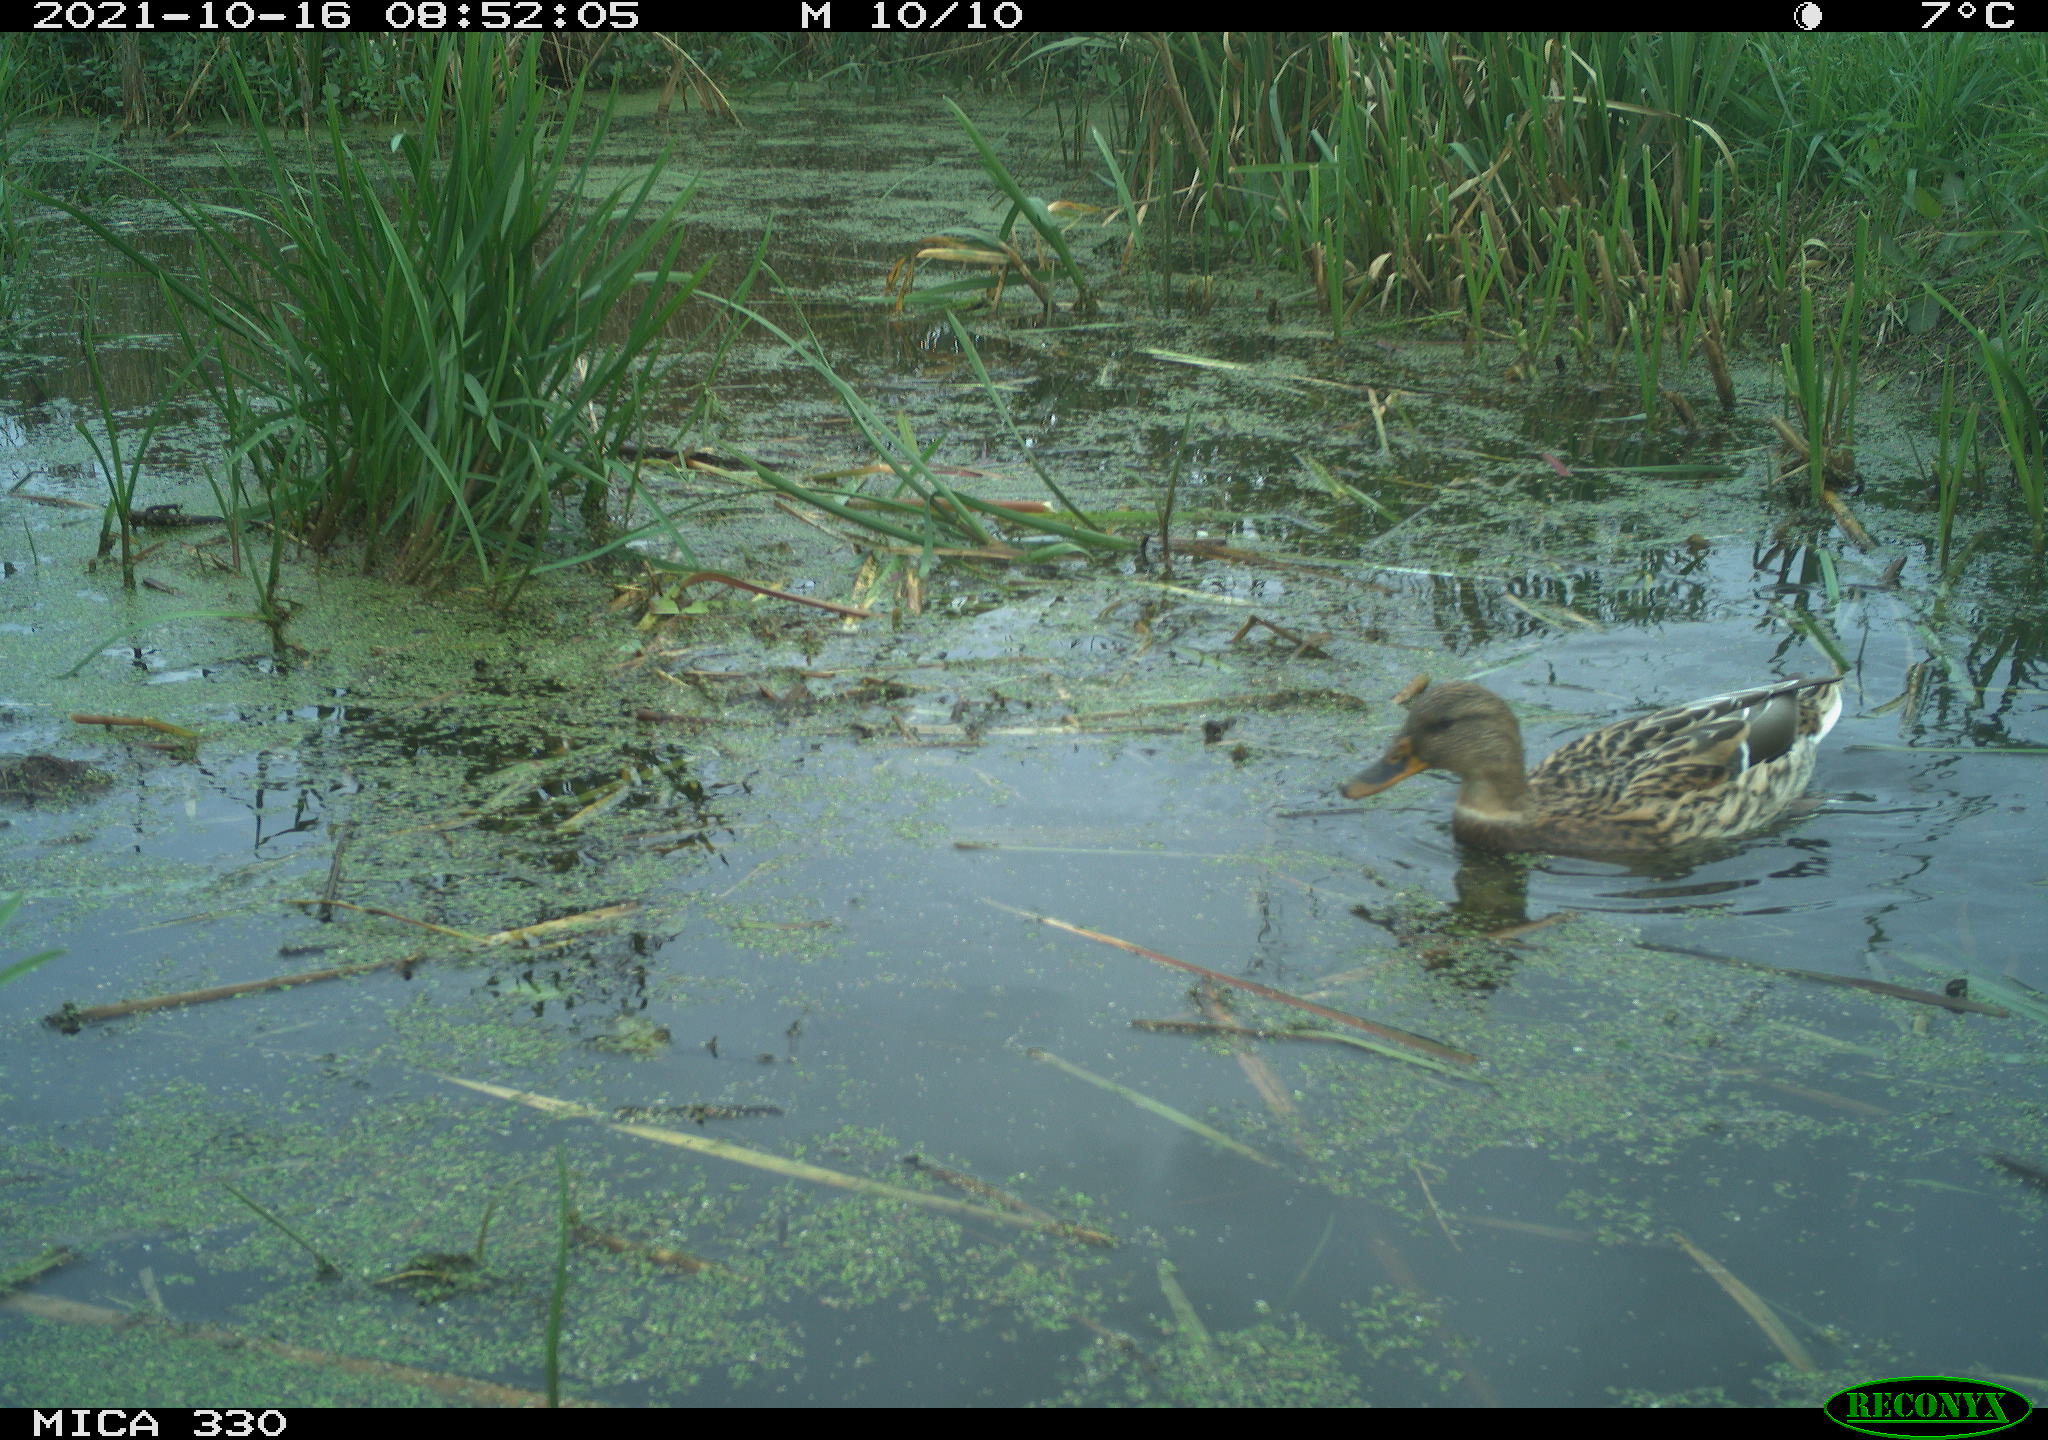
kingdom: Animalia
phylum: Chordata
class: Aves
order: Anseriformes
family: Anatidae
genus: Anas
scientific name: Anas platyrhynchos
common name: Mallard
